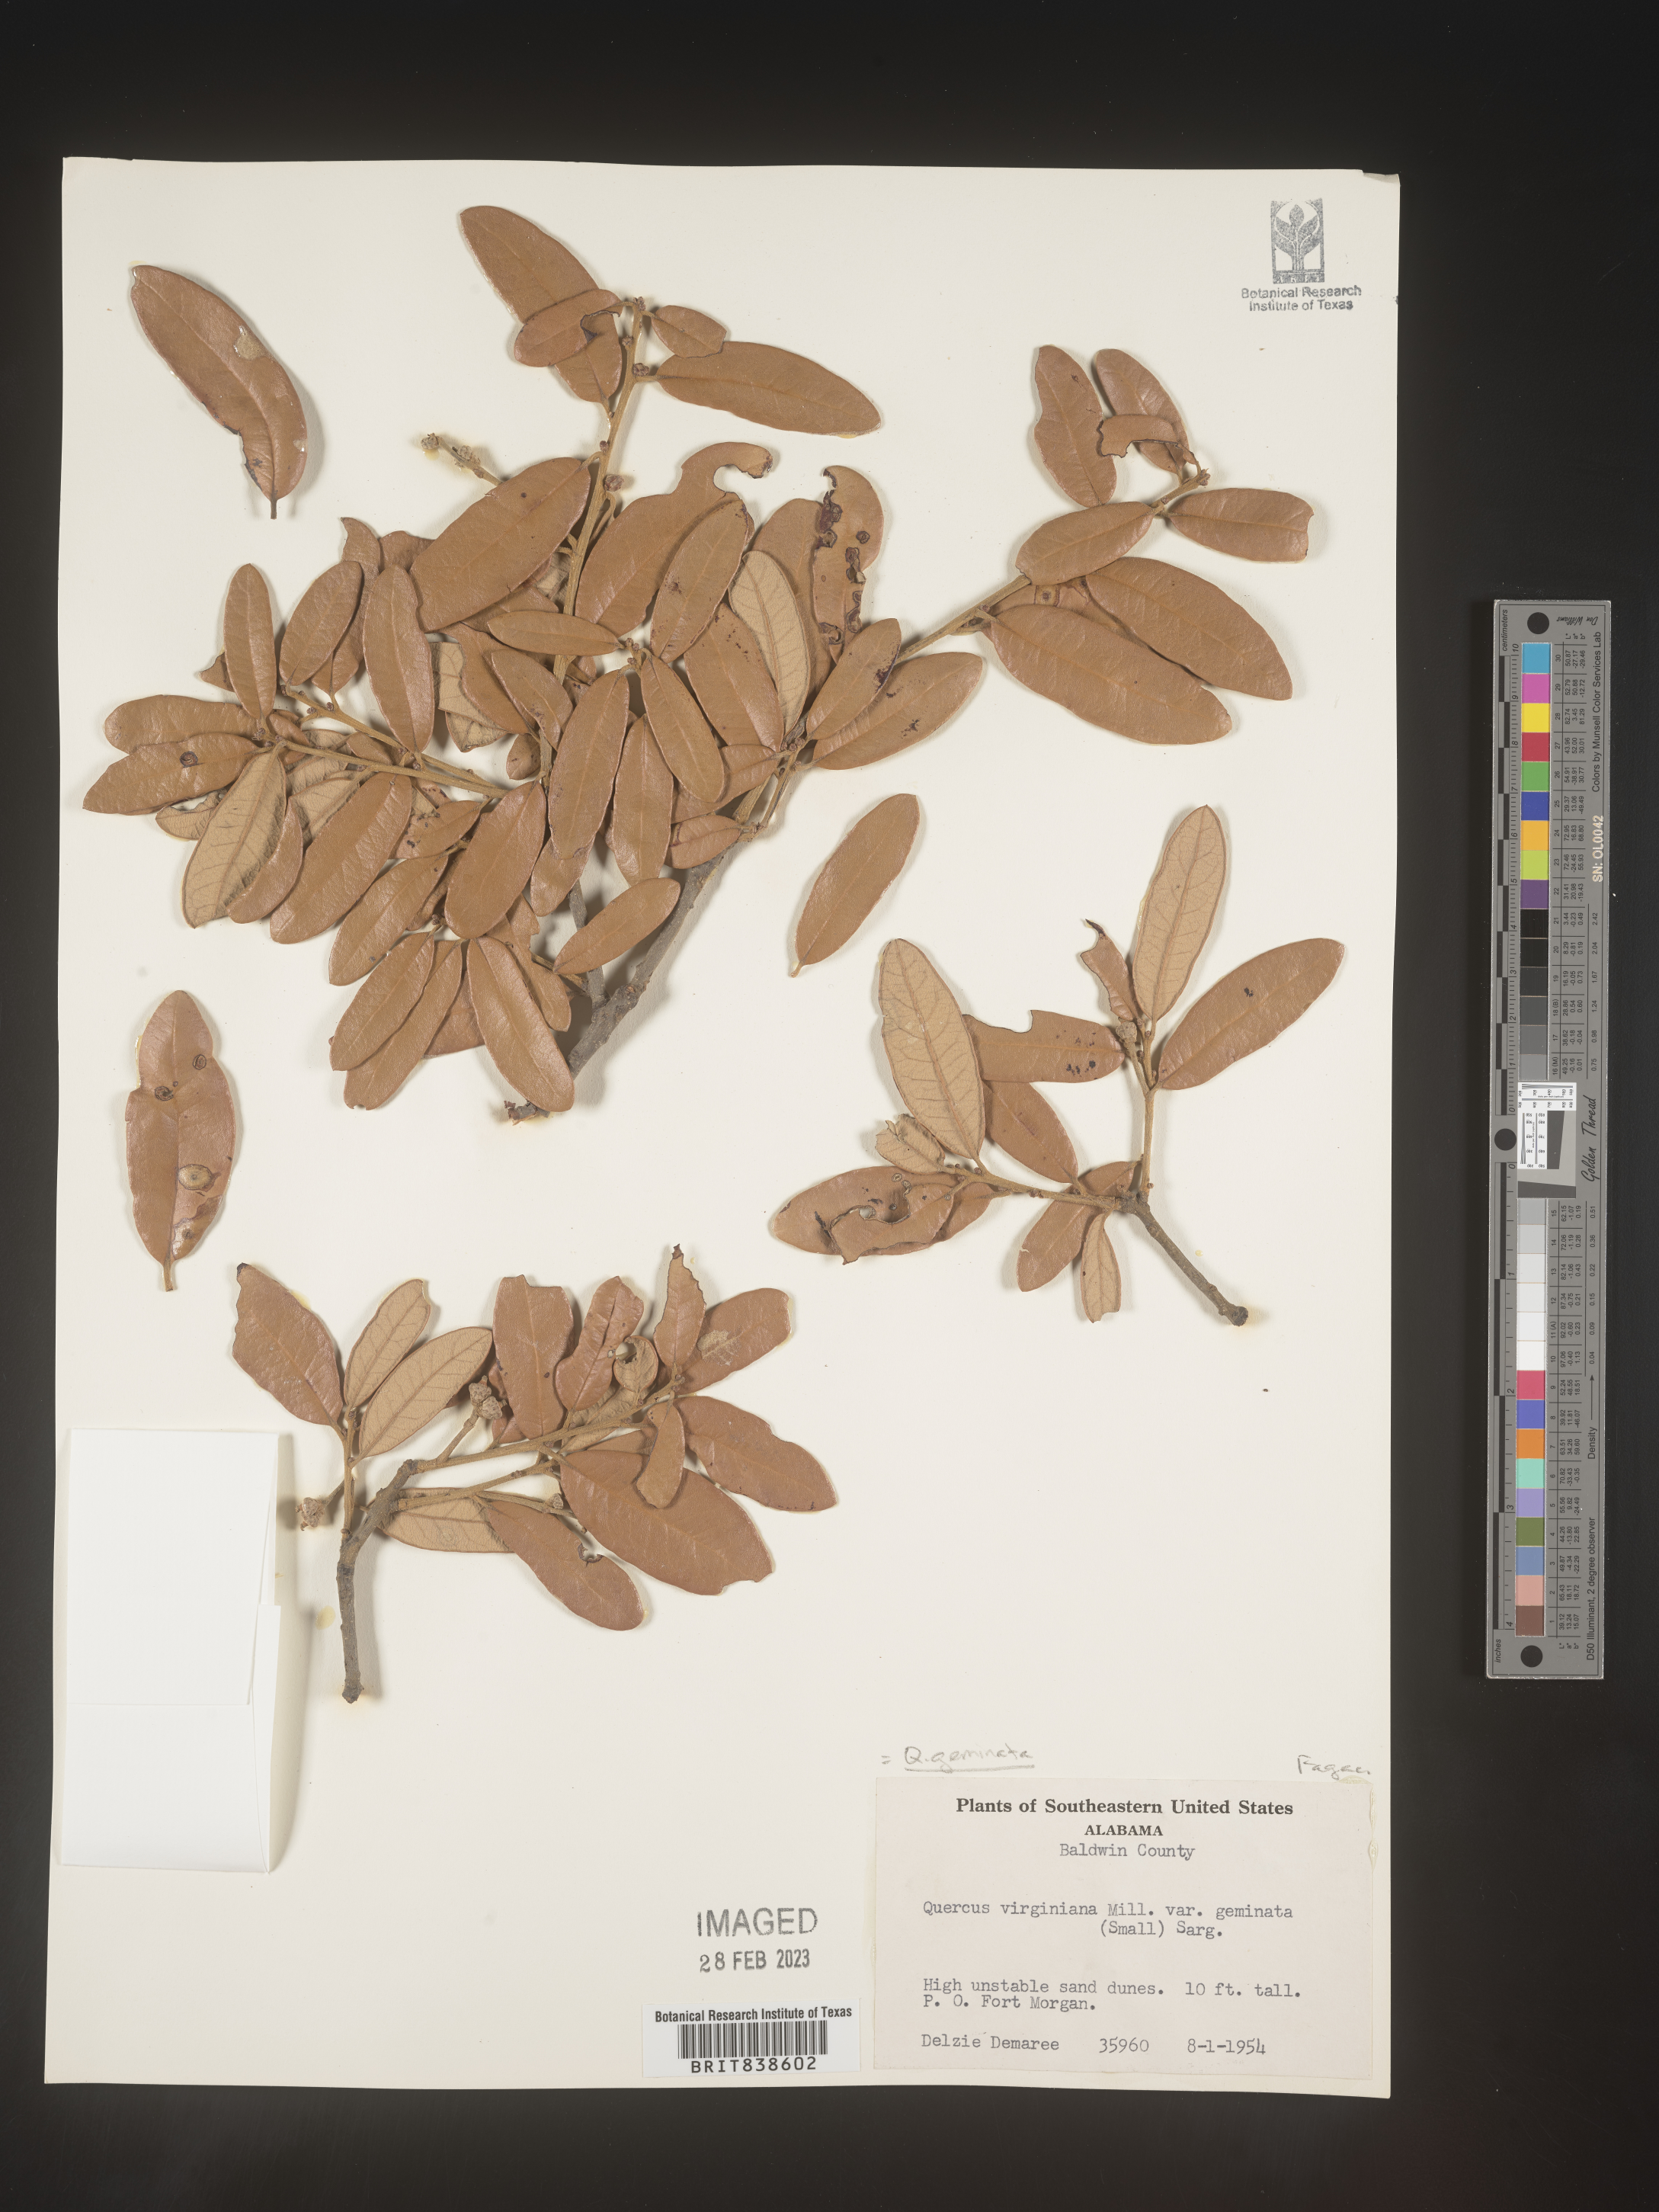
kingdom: Plantae
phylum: Tracheophyta
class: Magnoliopsida
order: Fagales
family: Fagaceae
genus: Quercus
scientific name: Quercus geminata
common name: Sand live oak
